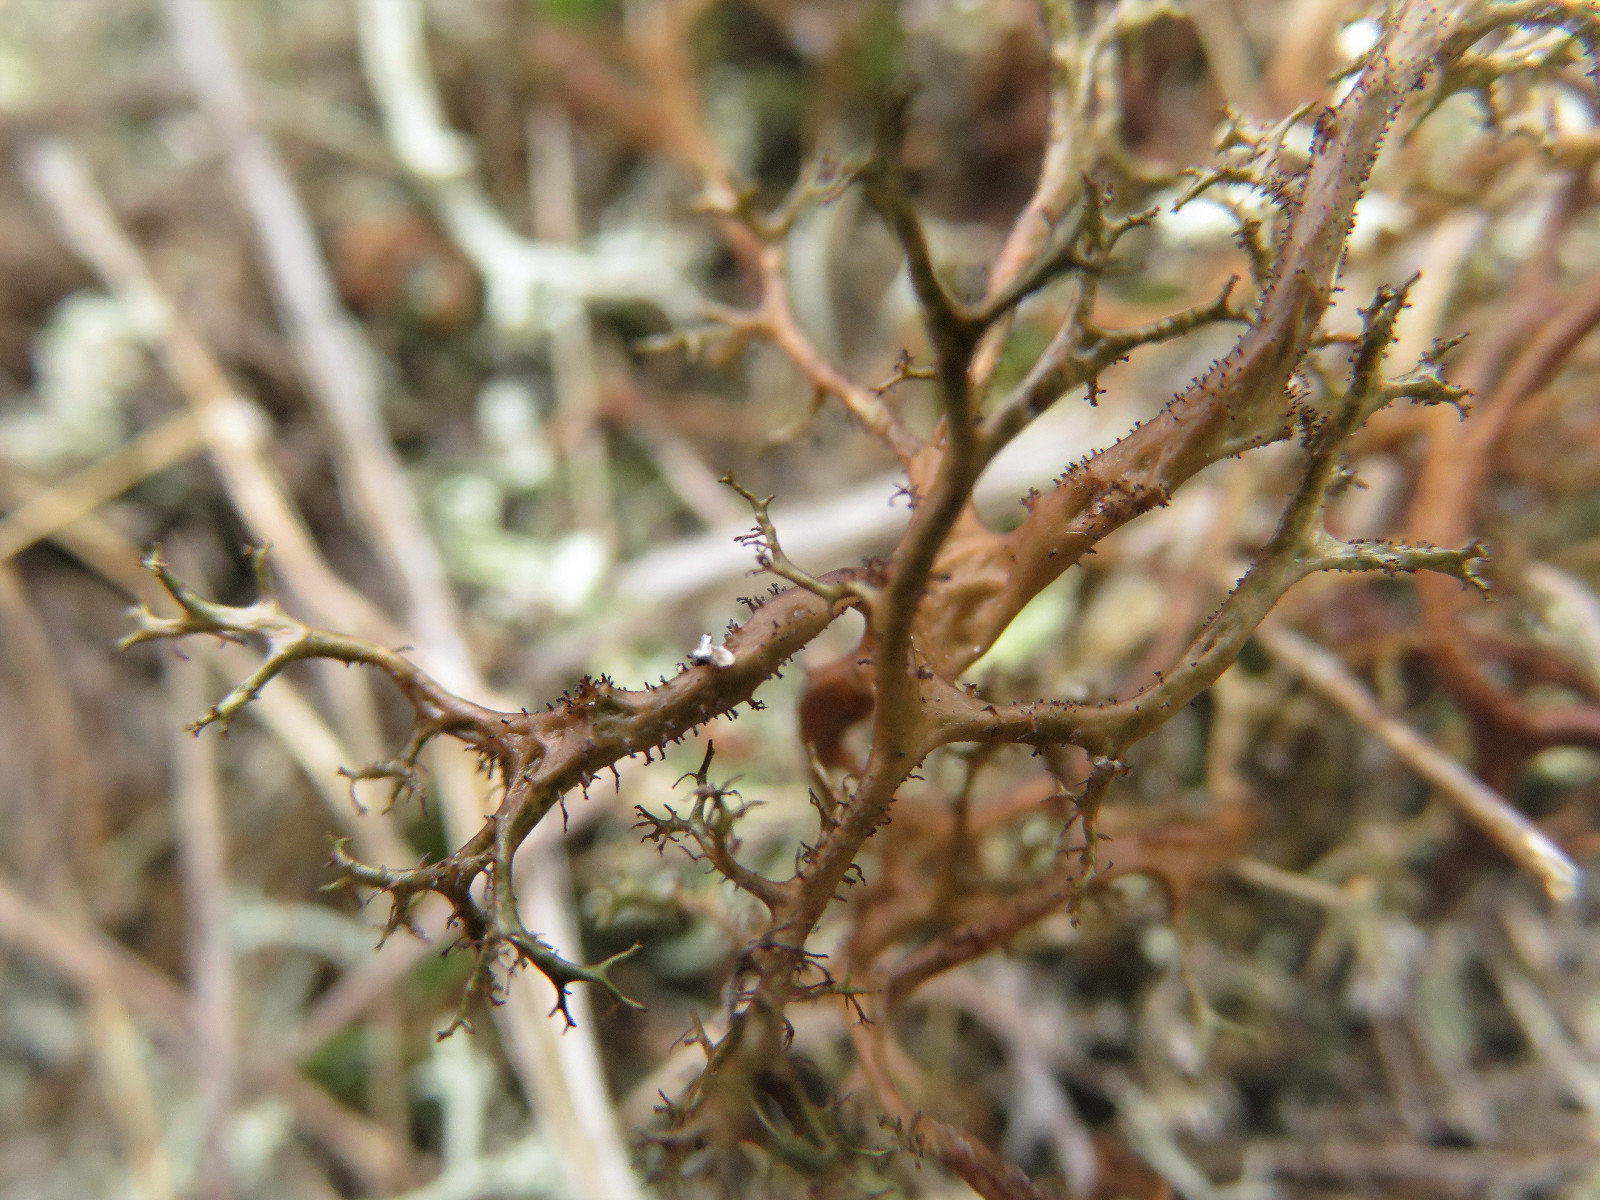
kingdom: Fungi
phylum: Ascomycota
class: Lecanoromycetes
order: Lecanorales
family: Parmeliaceae
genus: Cetraria
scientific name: Cetraria aculeata
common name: grubet tjørnelav
